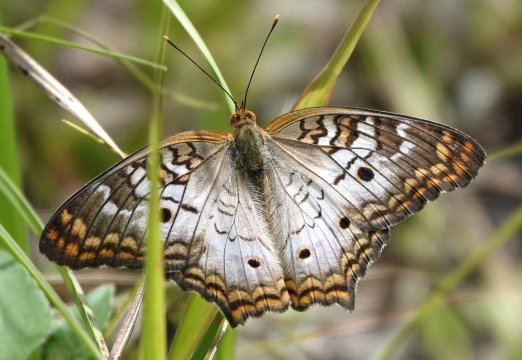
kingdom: Animalia
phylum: Arthropoda
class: Insecta
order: Lepidoptera
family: Nymphalidae
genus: Anartia
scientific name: Anartia jatrophae
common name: White Peacock
